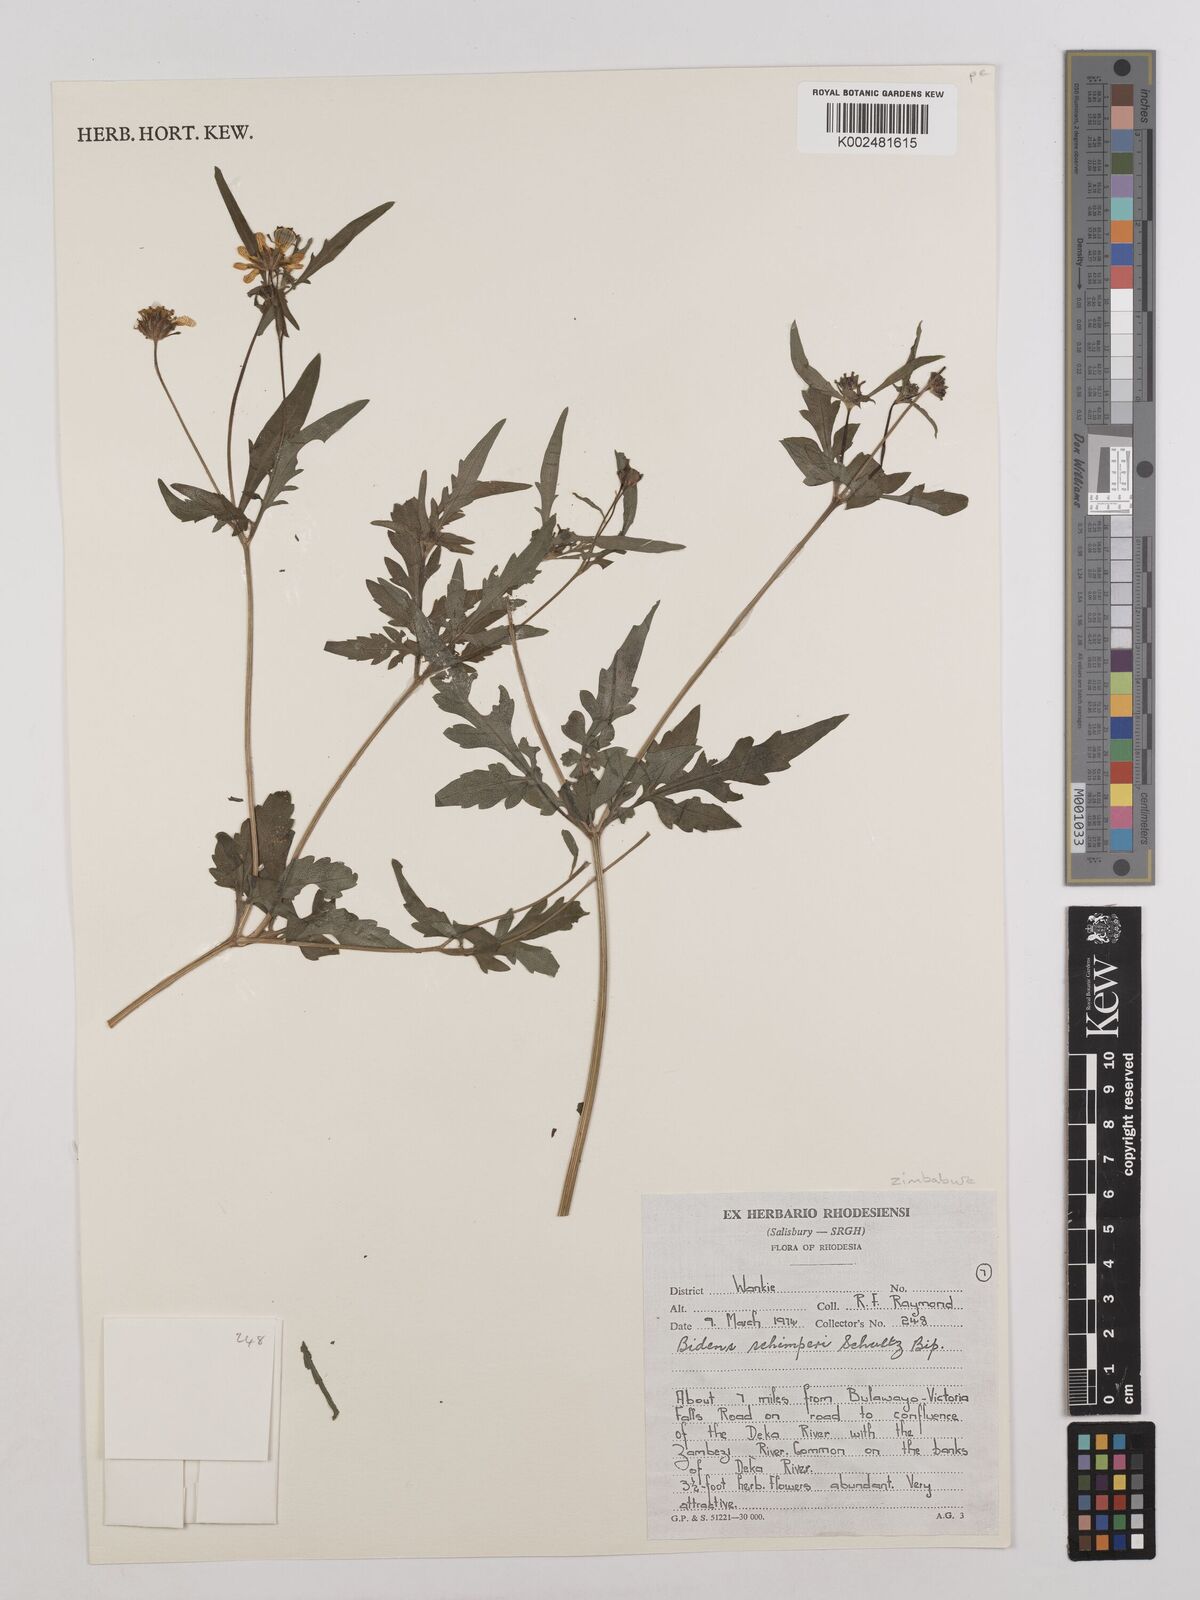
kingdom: Plantae
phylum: Tracheophyta
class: Magnoliopsida
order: Asterales
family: Asteraceae
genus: Bidens
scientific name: Bidens schimperi
